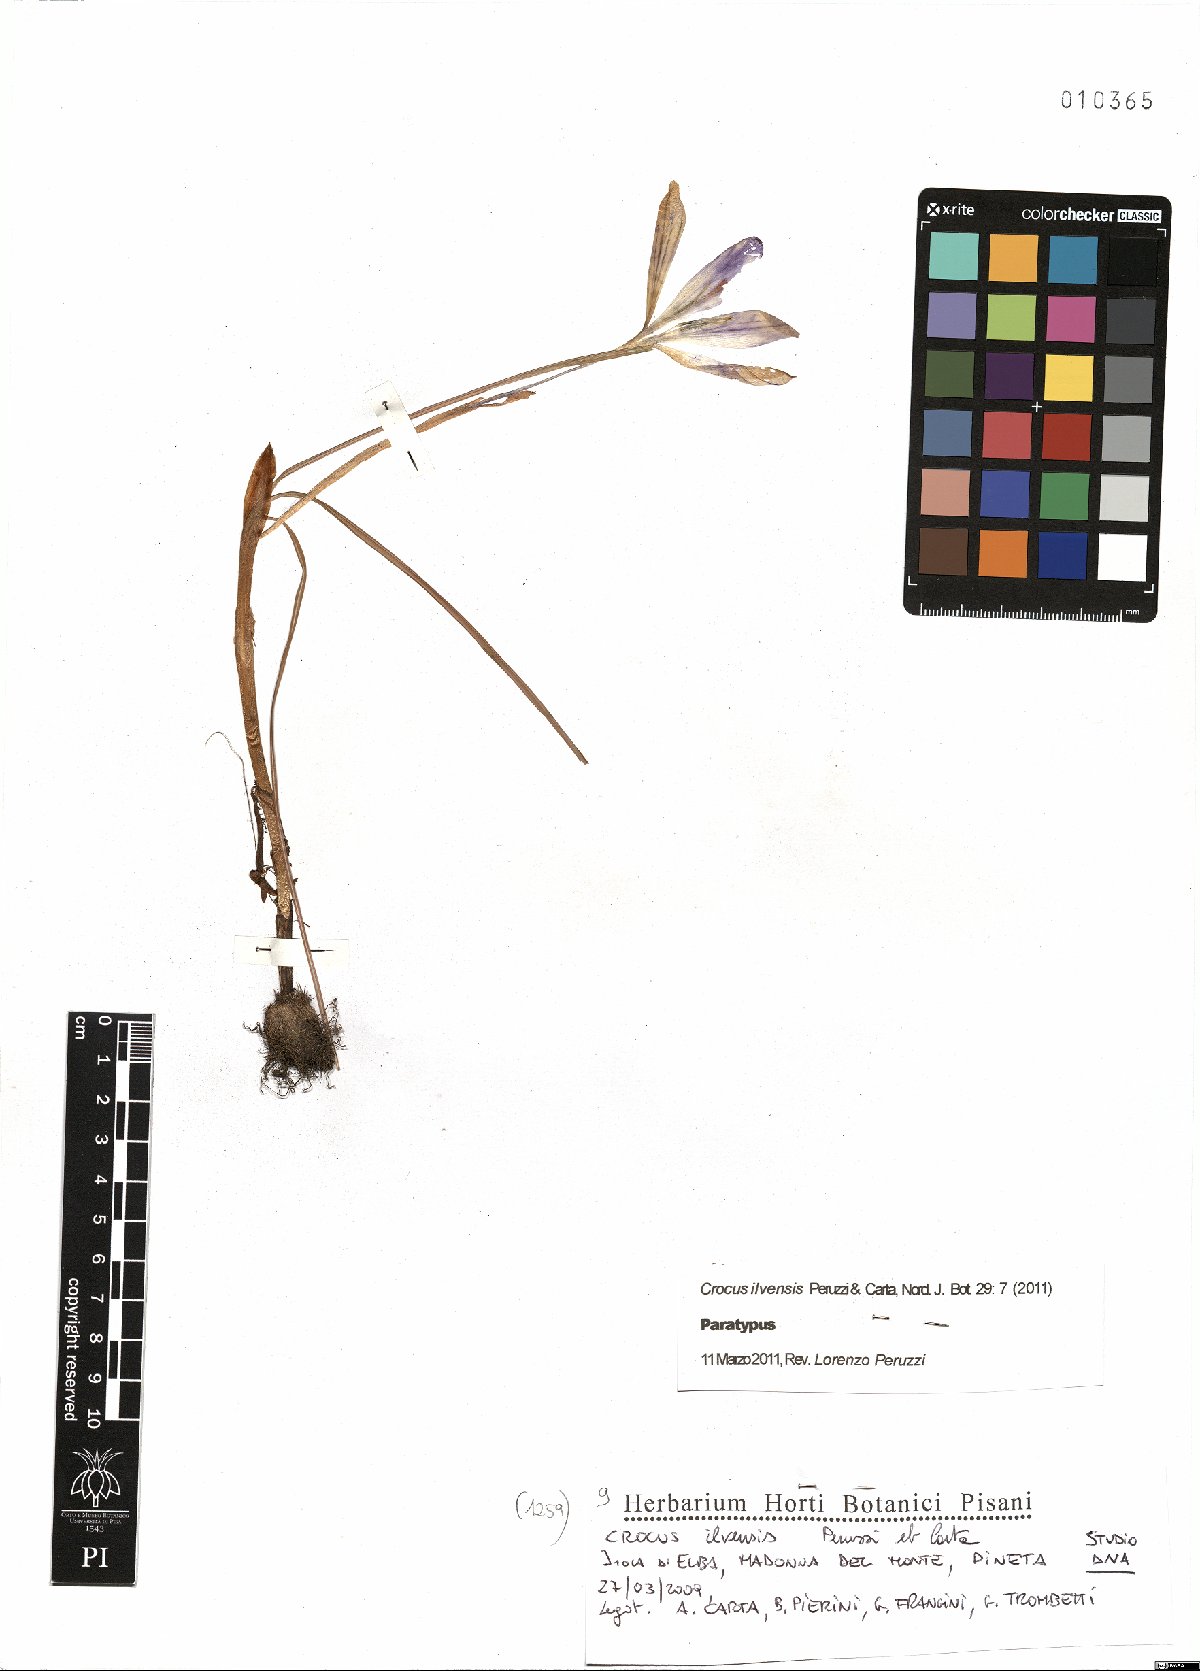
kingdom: Plantae
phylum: Tracheophyta
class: Liliopsida
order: Asparagales
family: Iridaceae
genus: Crocus
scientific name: Crocus ilvensis
